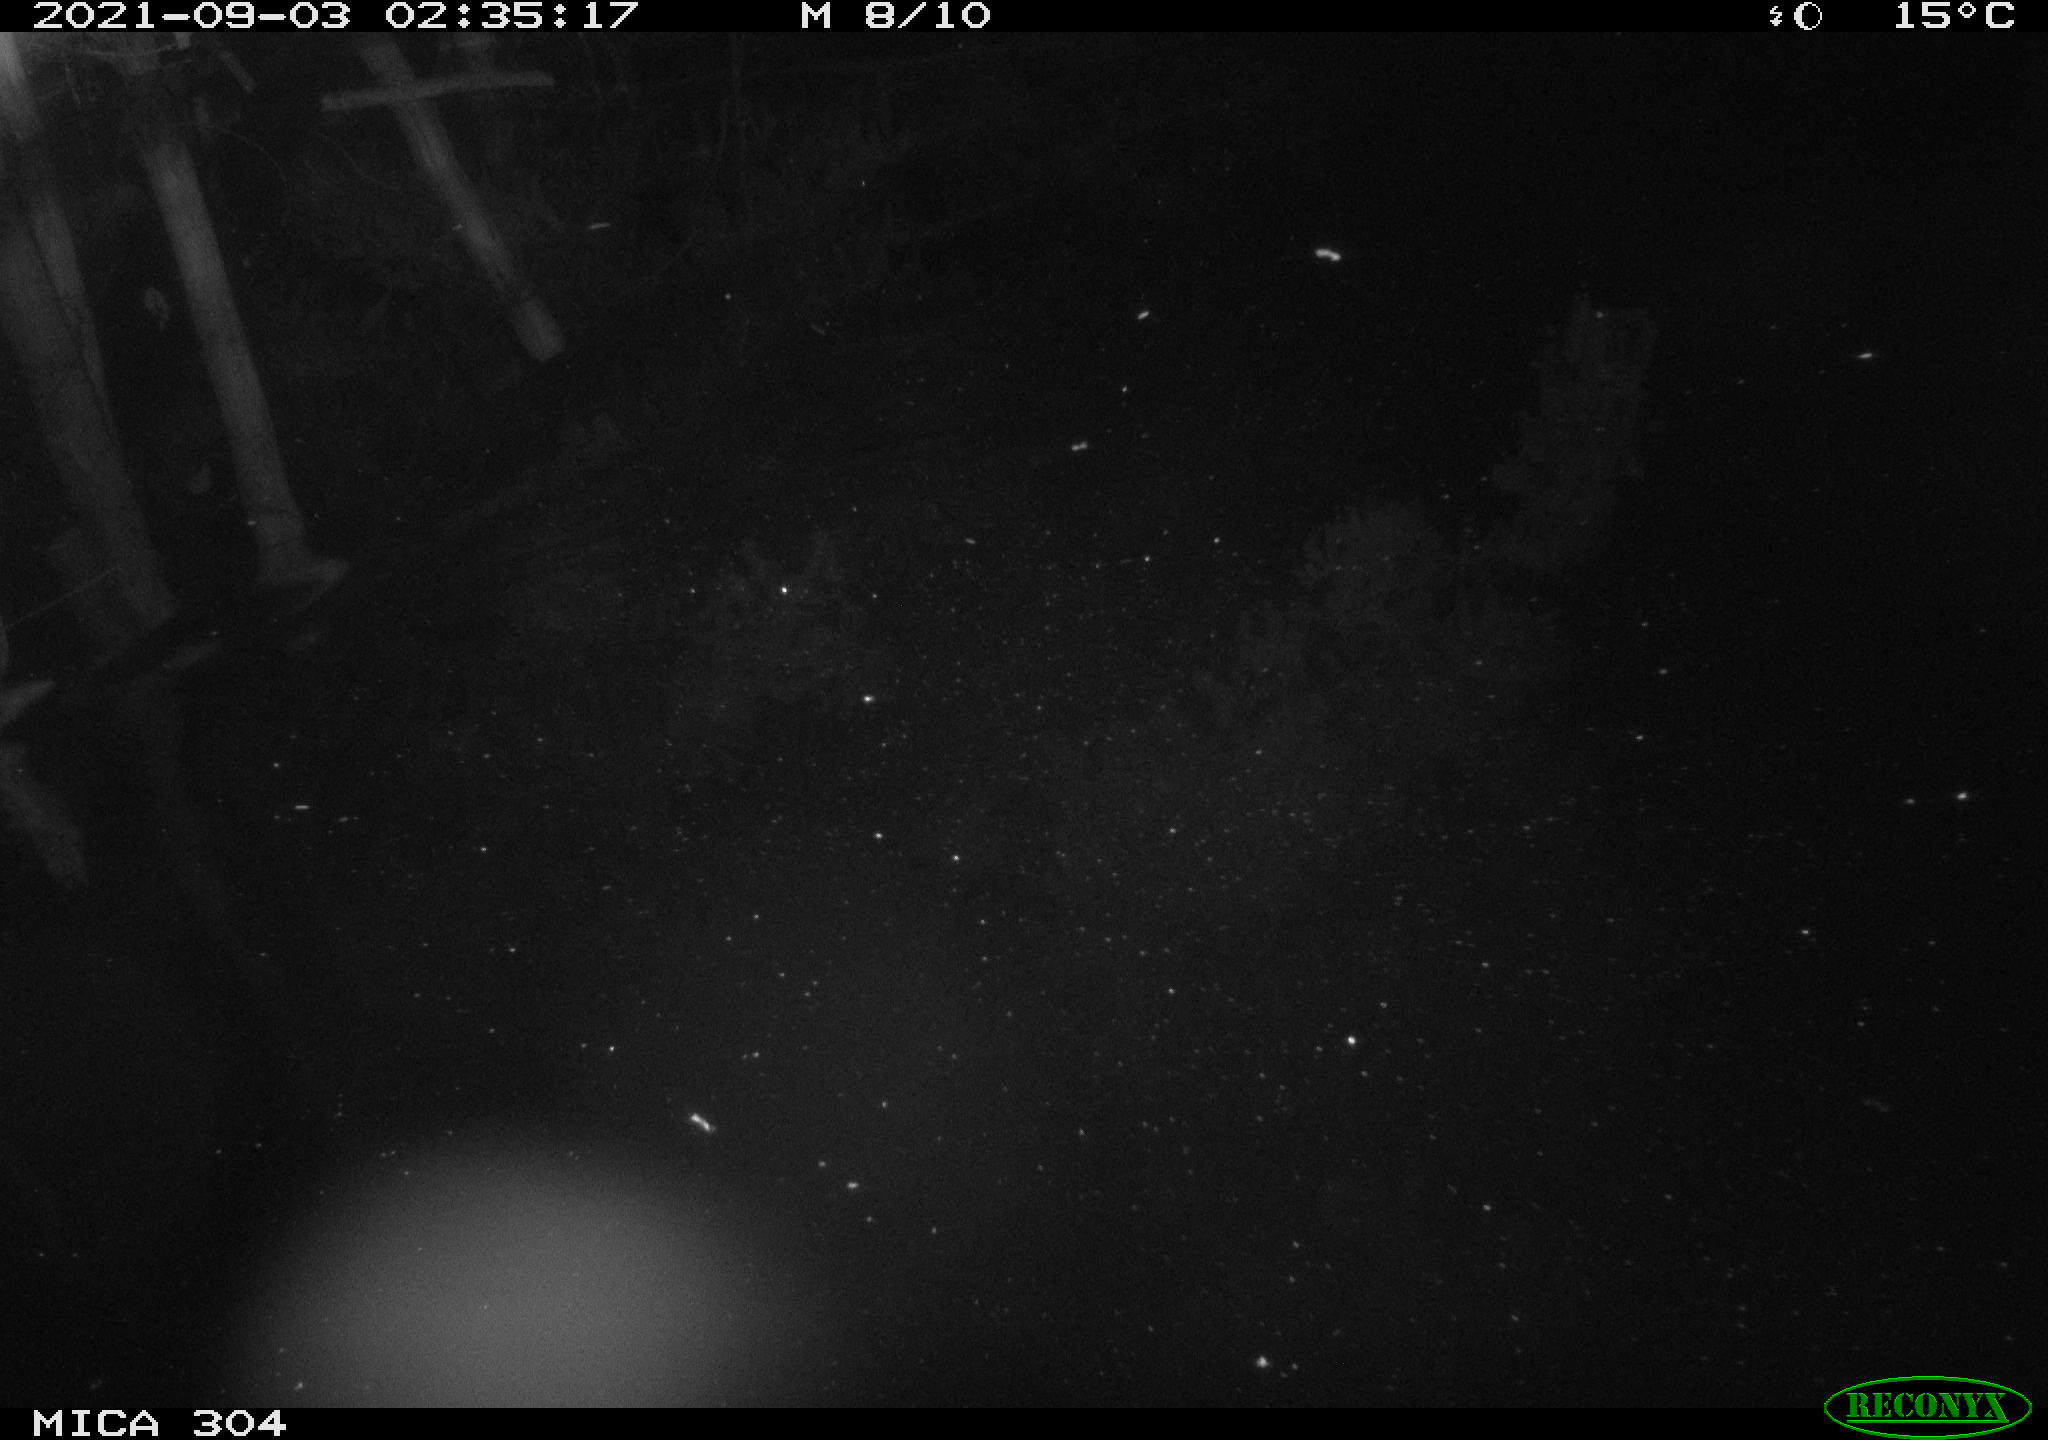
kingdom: Animalia
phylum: Chordata
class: Mammalia
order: Rodentia
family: Muridae
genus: Rattus
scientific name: Rattus norvegicus
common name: Brown rat
